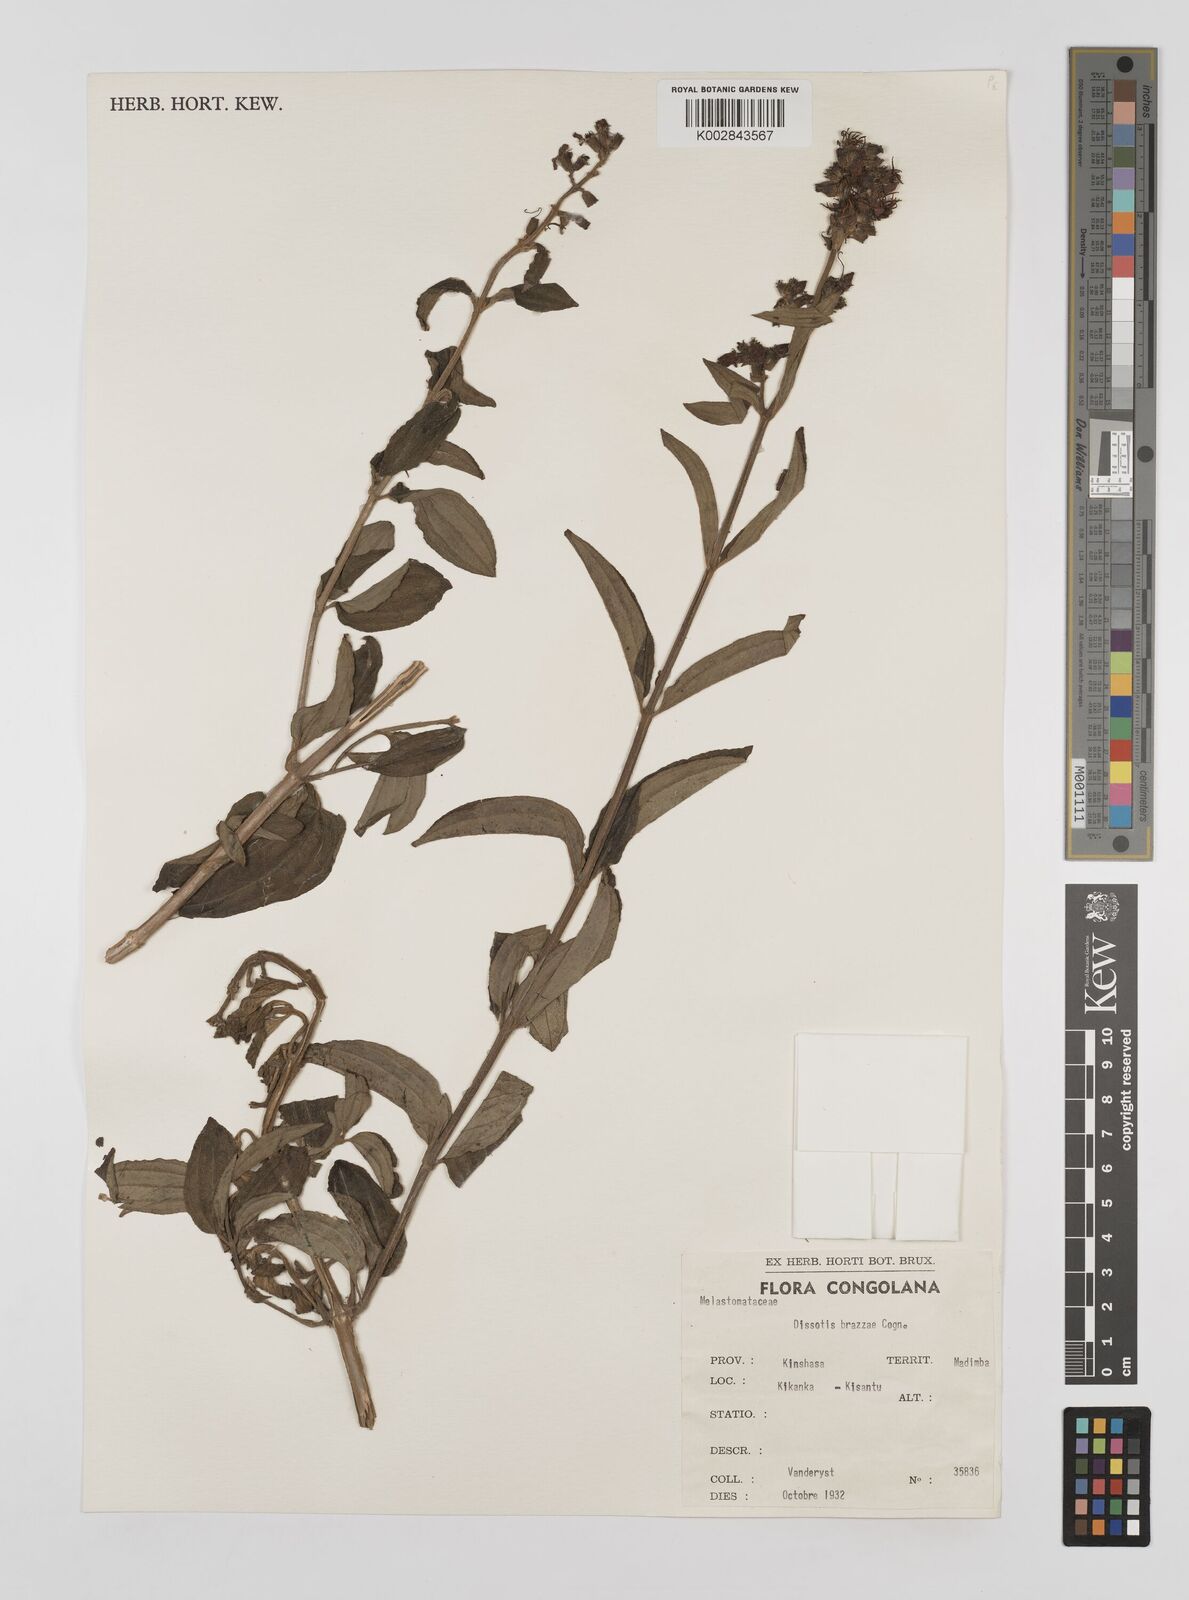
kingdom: Plantae
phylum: Tracheophyta
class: Magnoliopsida
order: Myrtales
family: Melastomataceae
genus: Dupineta
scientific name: Dupineta brazzae
